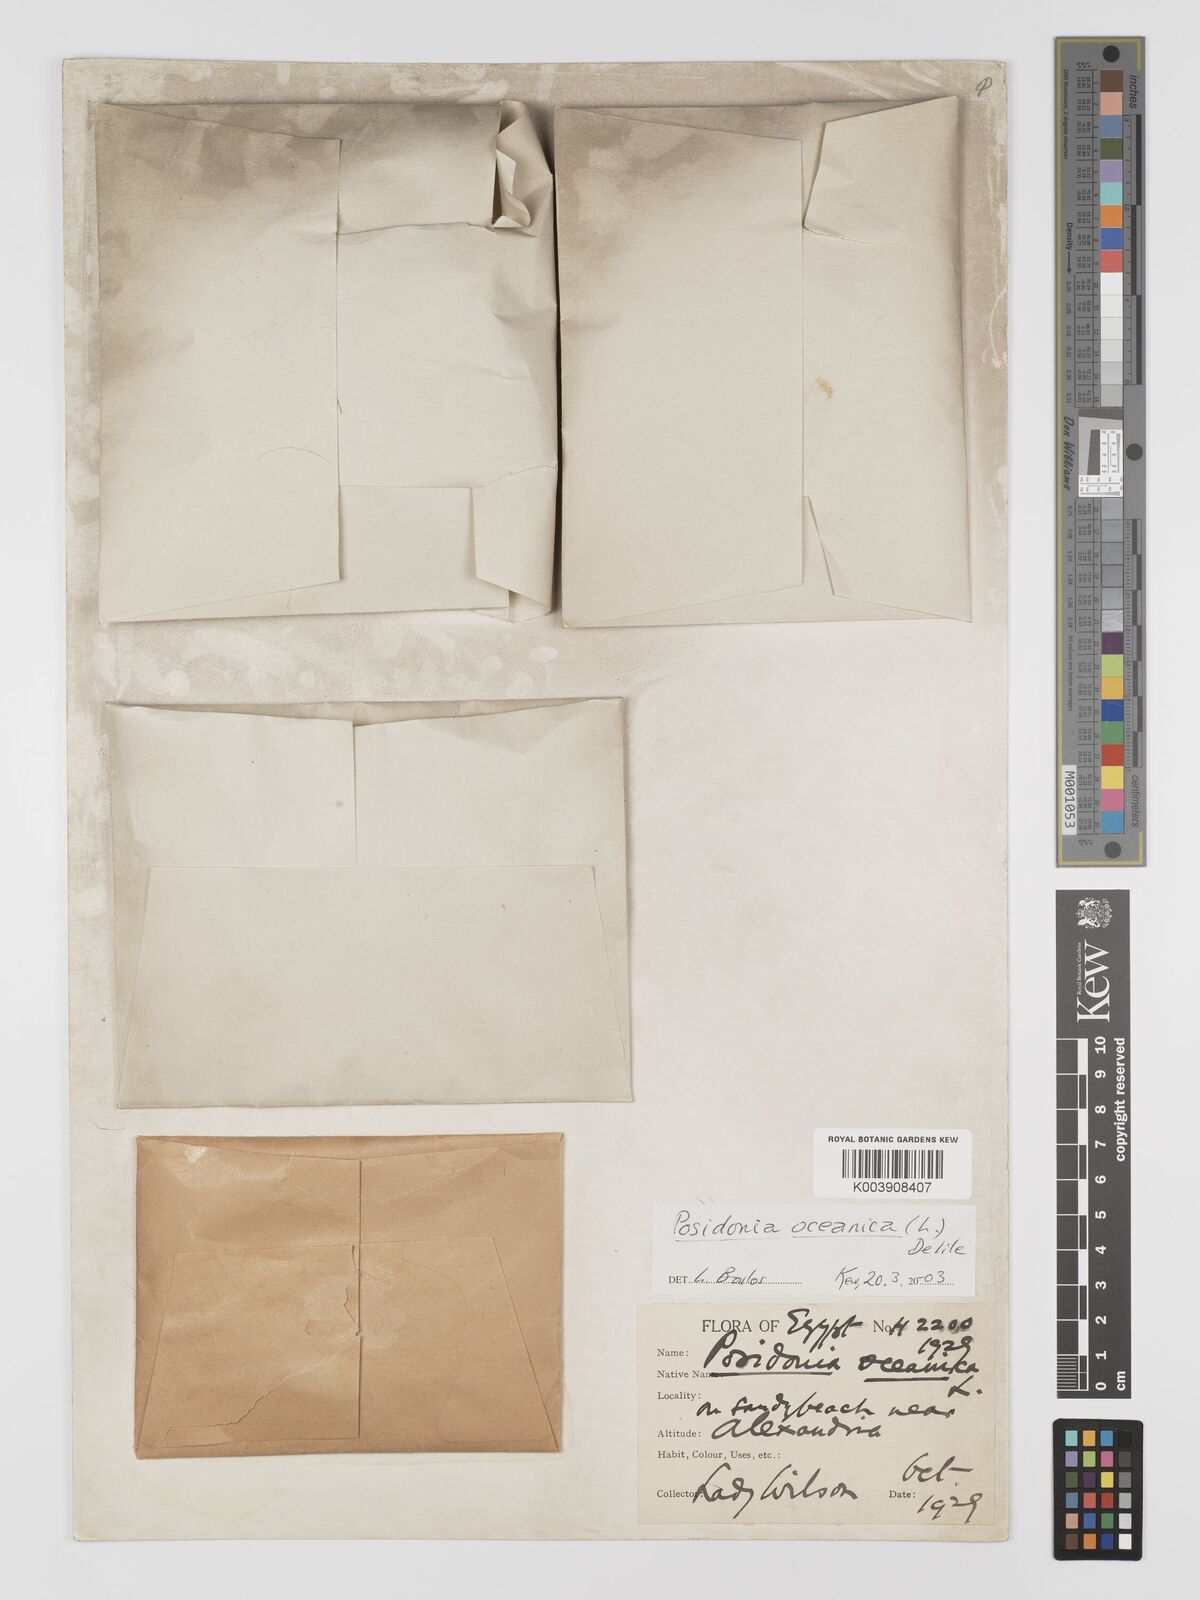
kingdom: Plantae
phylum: Tracheophyta
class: Liliopsida
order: Alismatales
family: Posidoniaceae
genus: Posidonia
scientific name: Posidonia oceanica
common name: Mediterranean tapeweed
